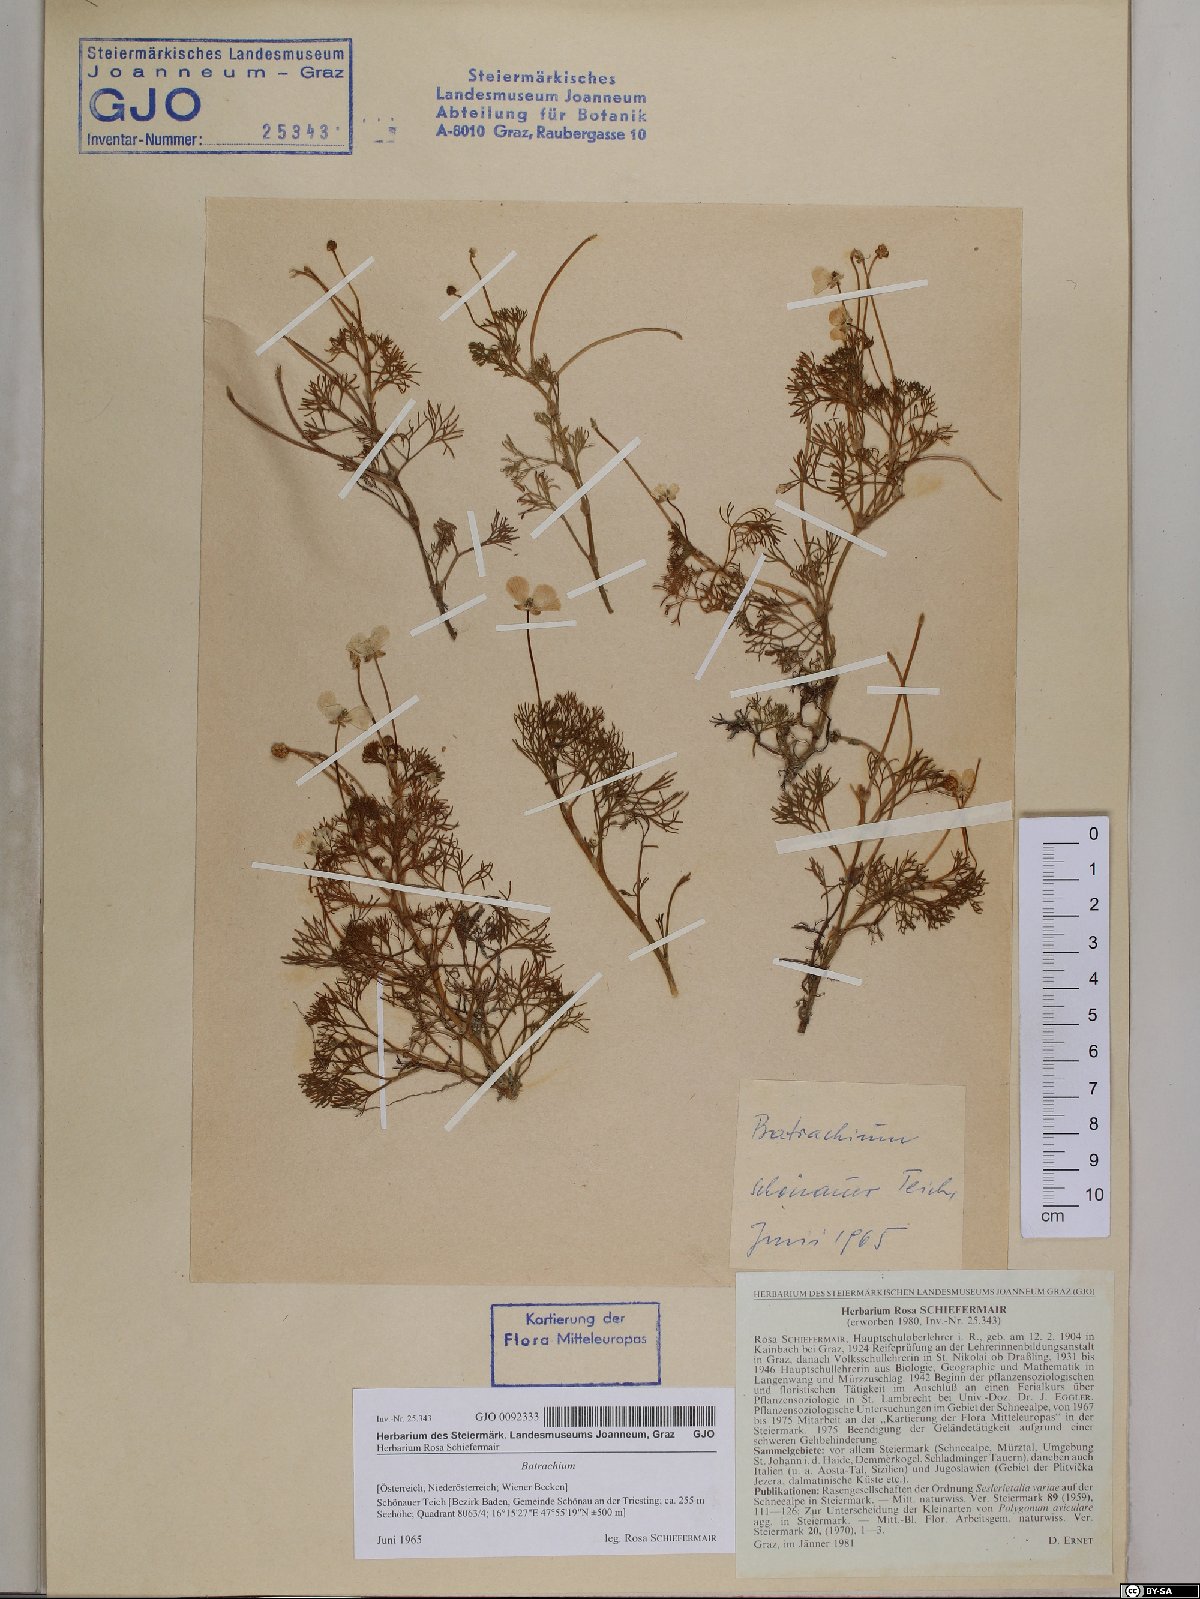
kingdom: Plantae
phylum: Tracheophyta
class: Magnoliopsida
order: Ranunculales
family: Ranunculaceae
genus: Ranunculus
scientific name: Ranunculus
